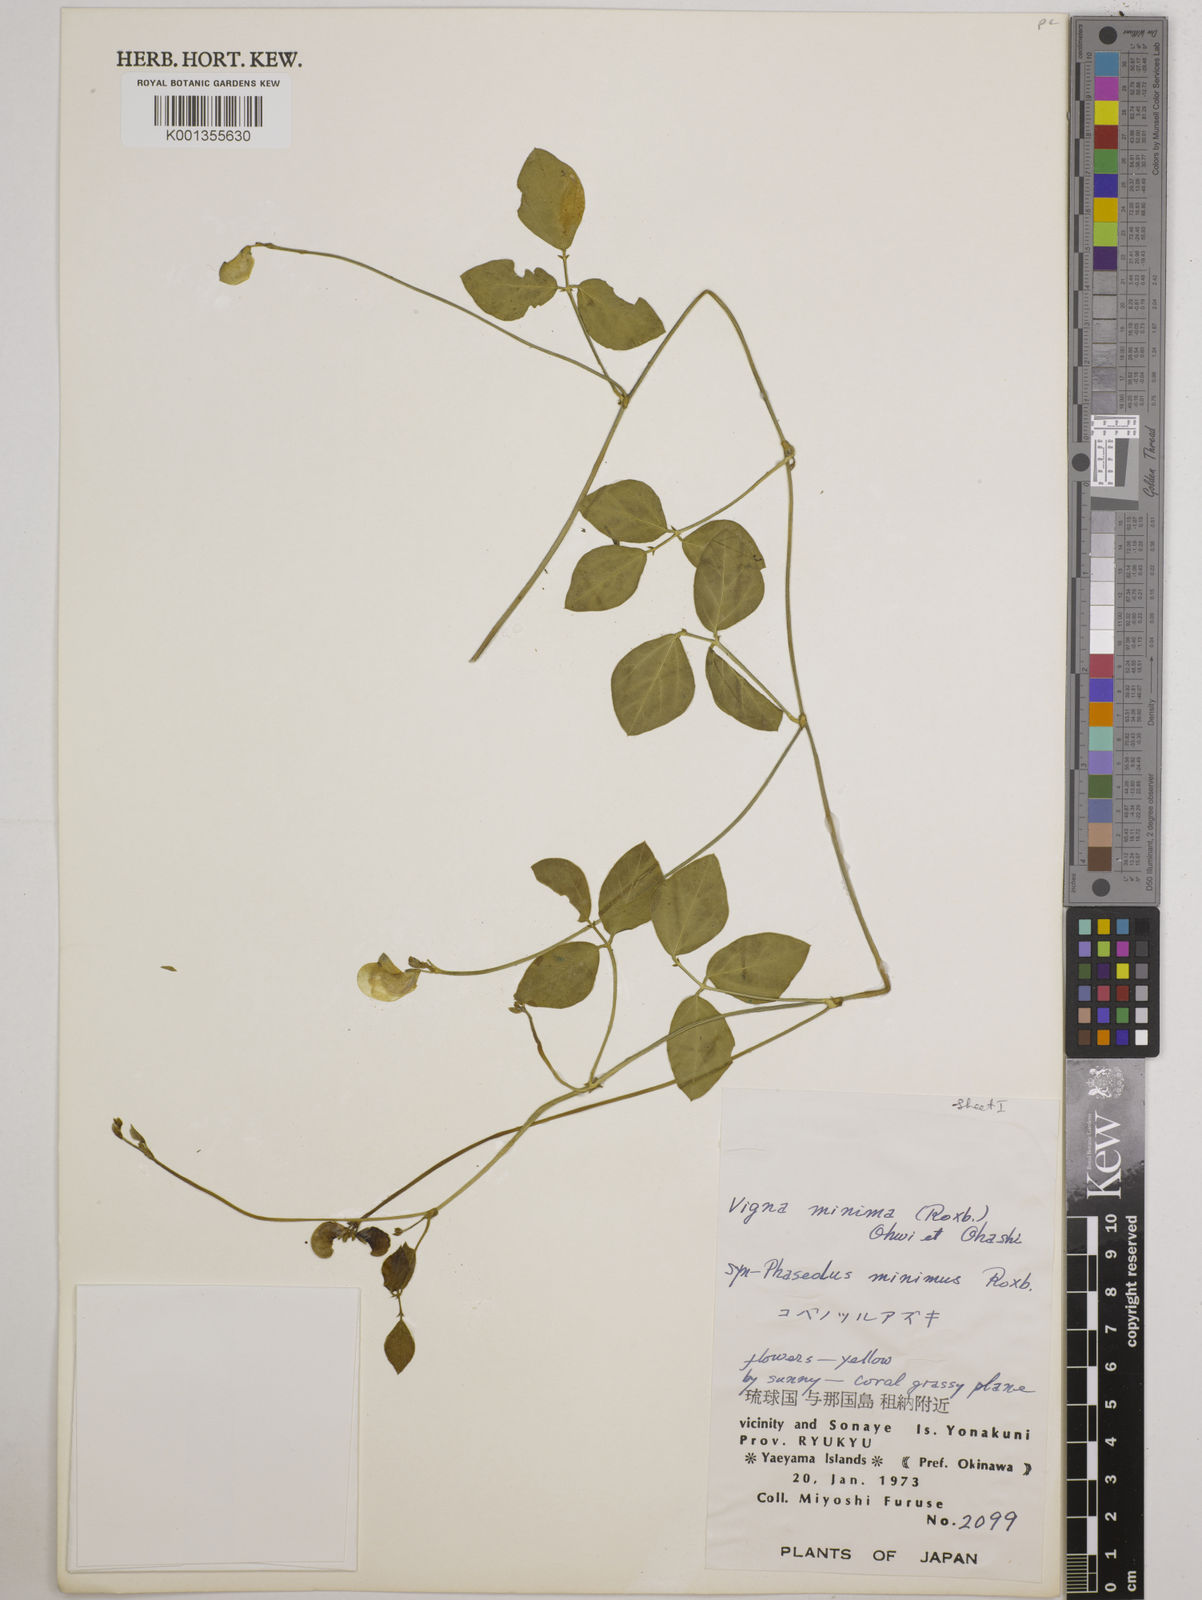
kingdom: Plantae
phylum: Tracheophyta
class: Magnoliopsida
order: Fabales
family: Fabaceae
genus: Vigna
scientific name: Vigna minima
